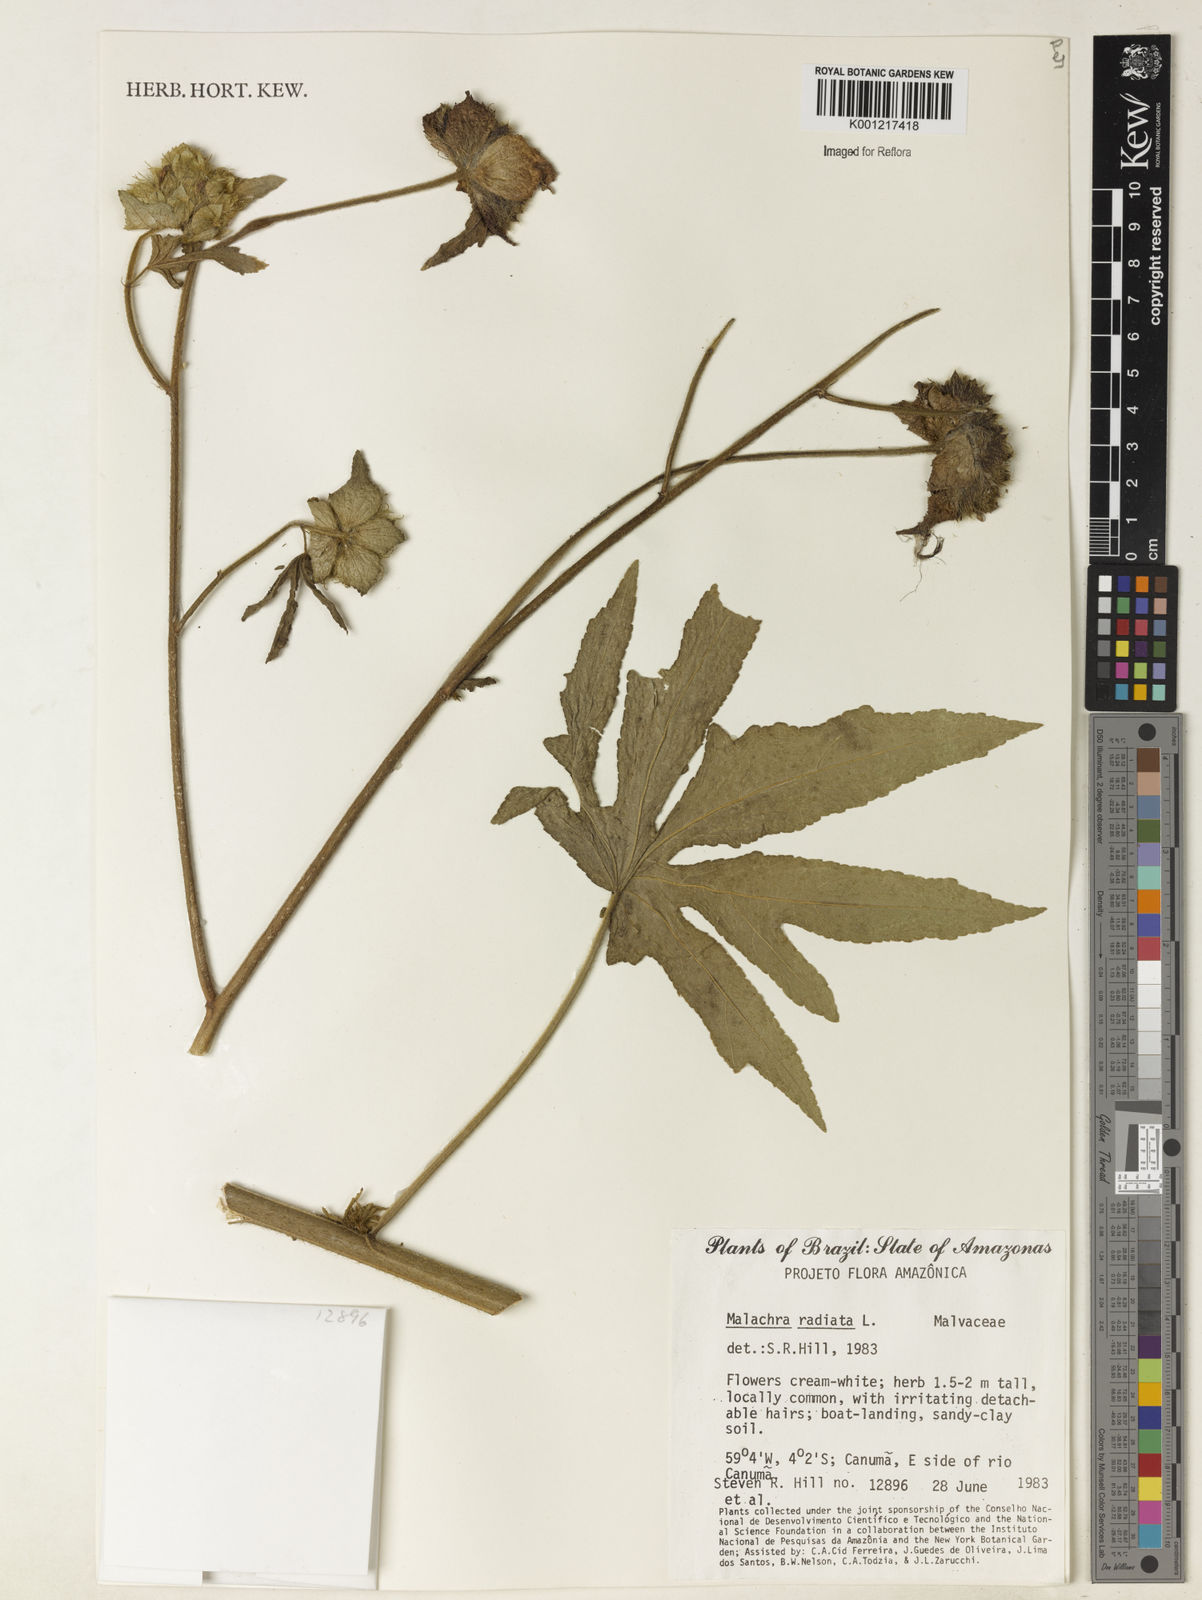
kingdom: Plantae
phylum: Tracheophyta
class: Magnoliopsida
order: Malvales
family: Malvaceae
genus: Malachra
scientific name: Malachra radiata
